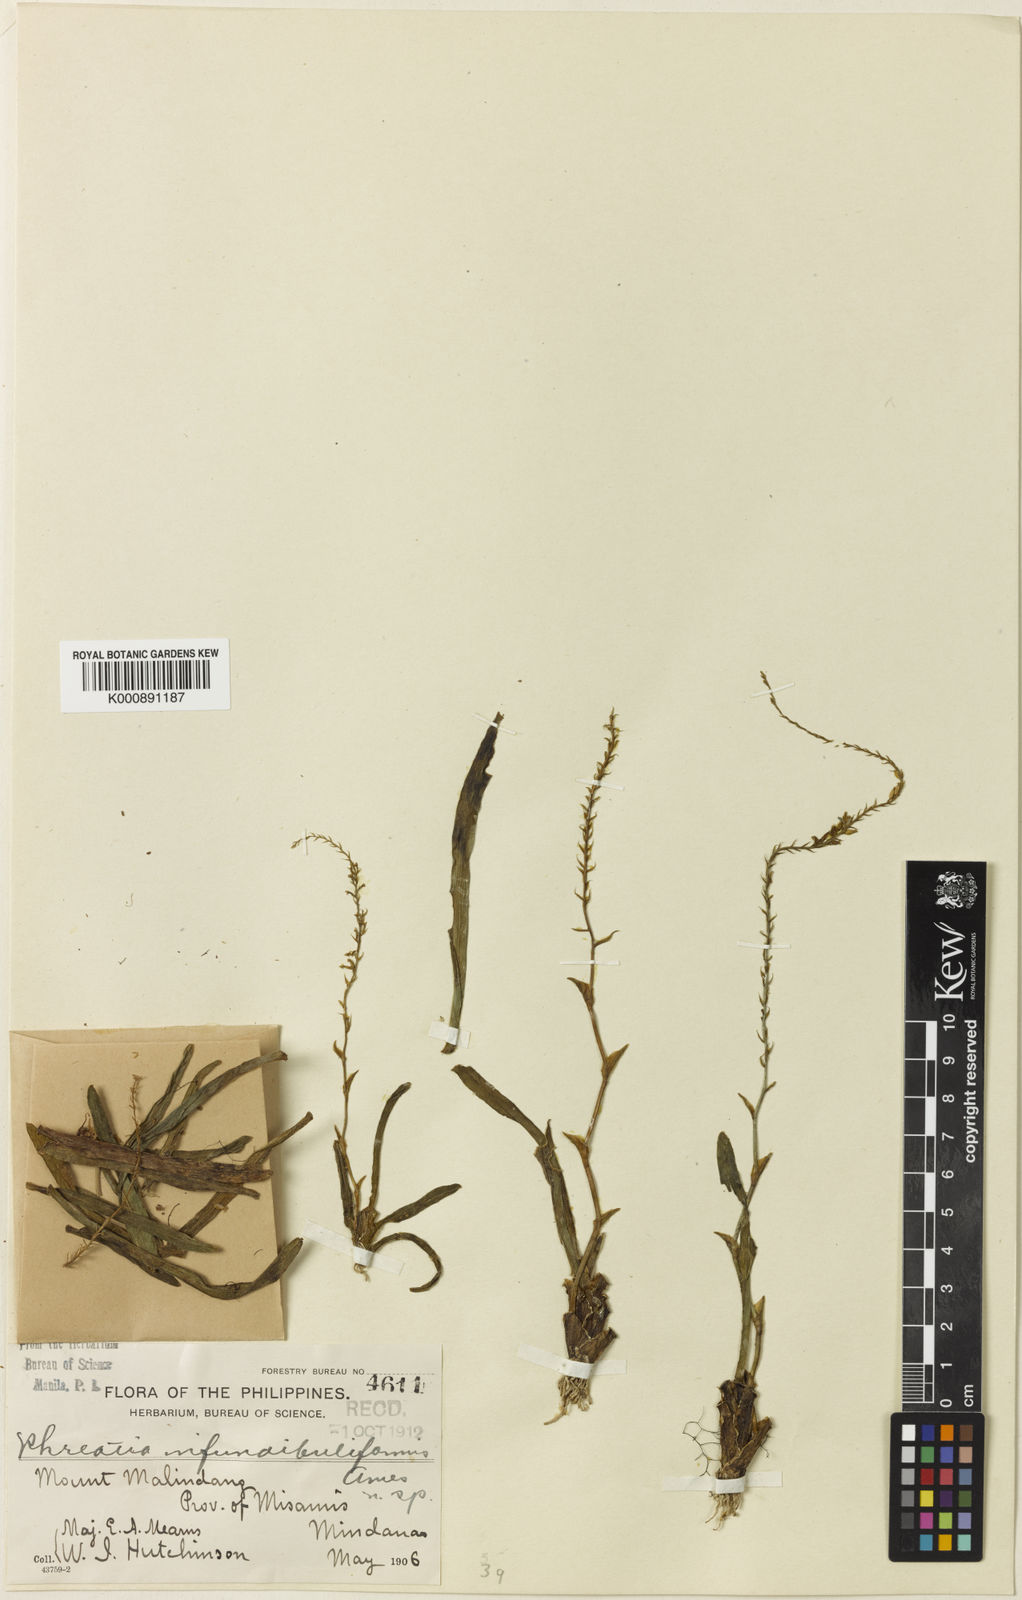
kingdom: Plantae
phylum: Tracheophyta
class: Liliopsida
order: Asparagales
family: Orchidaceae
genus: Phreatia
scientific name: Phreatia infundibuliformis
